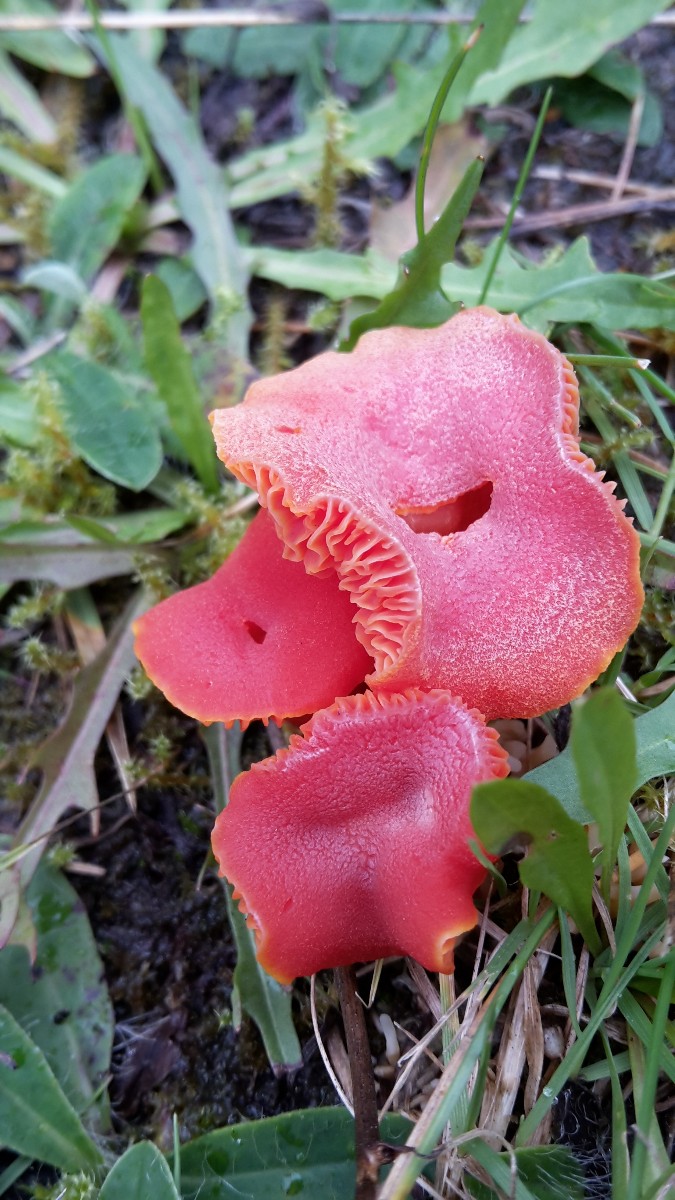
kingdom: Fungi
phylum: Basidiomycota
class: Agaricomycetes
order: Agaricales
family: Hygrophoraceae
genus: Hygrocybe
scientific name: Hygrocybe miniata
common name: mønje-vokshat
